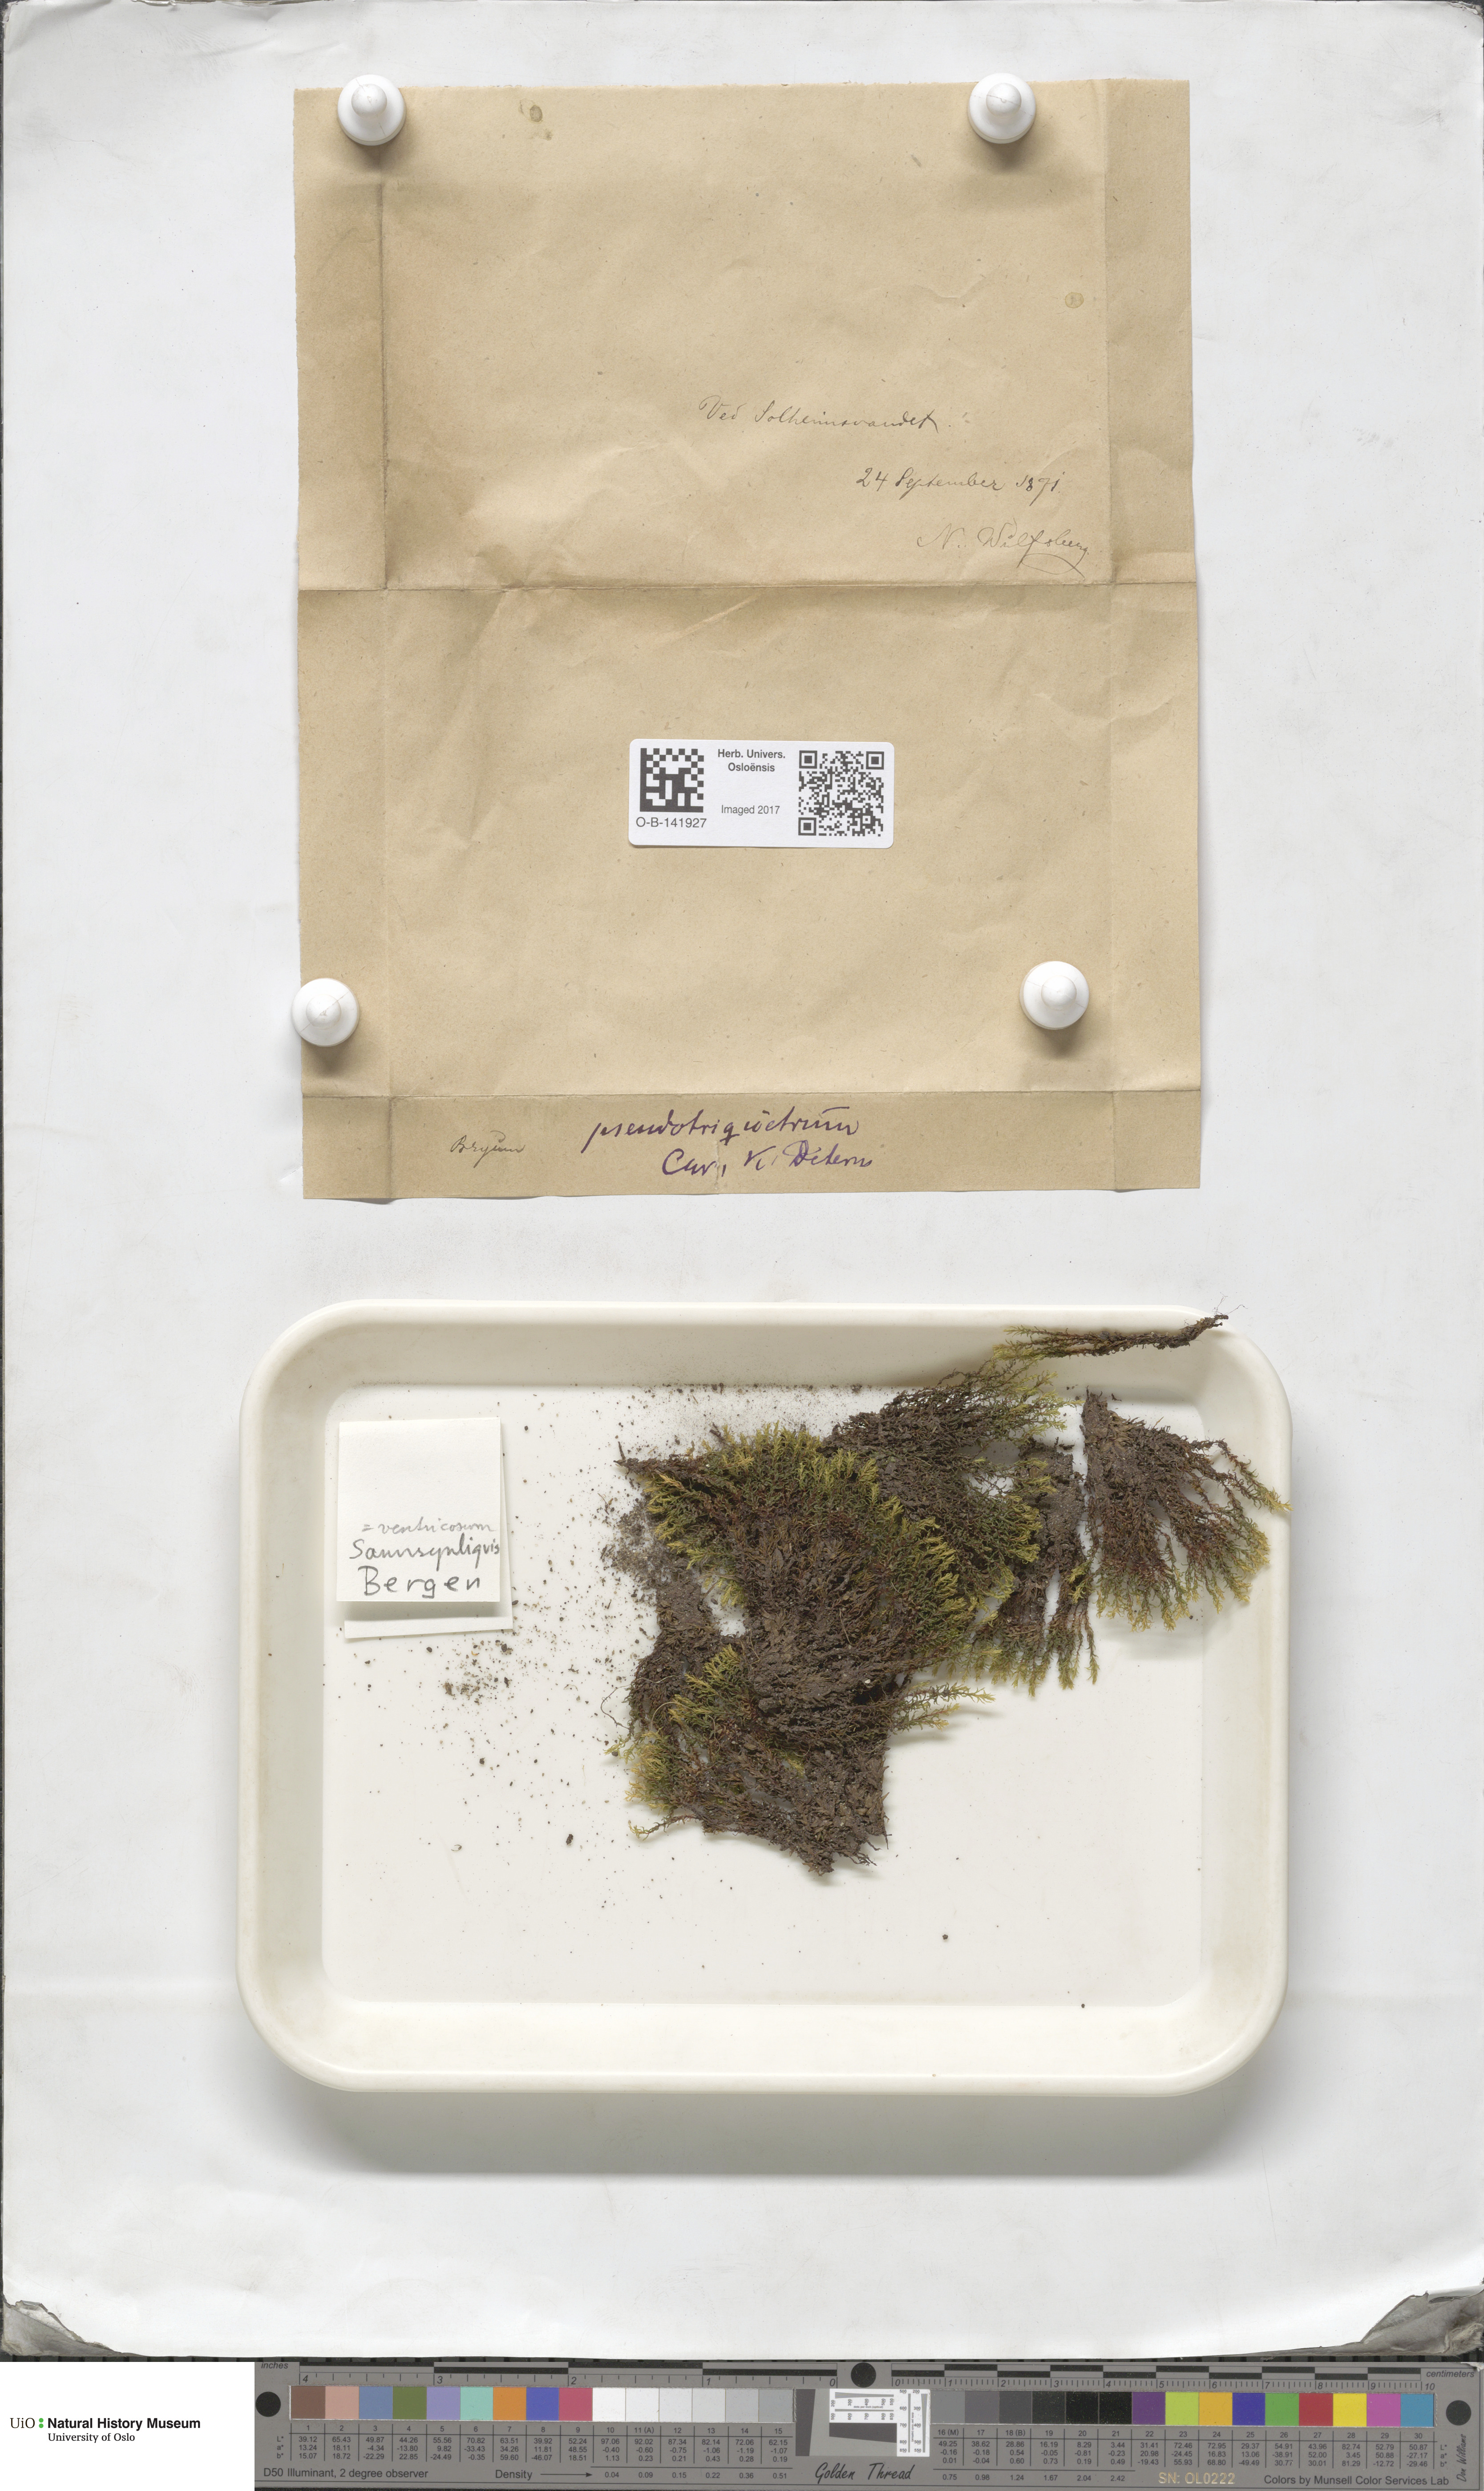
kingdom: Plantae
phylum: Bryophyta
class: Bryopsida
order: Bryales
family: Bryaceae
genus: Ptychostomum
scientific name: Ptychostomum pseudotriquetrum
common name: Long-leaved thread moss
